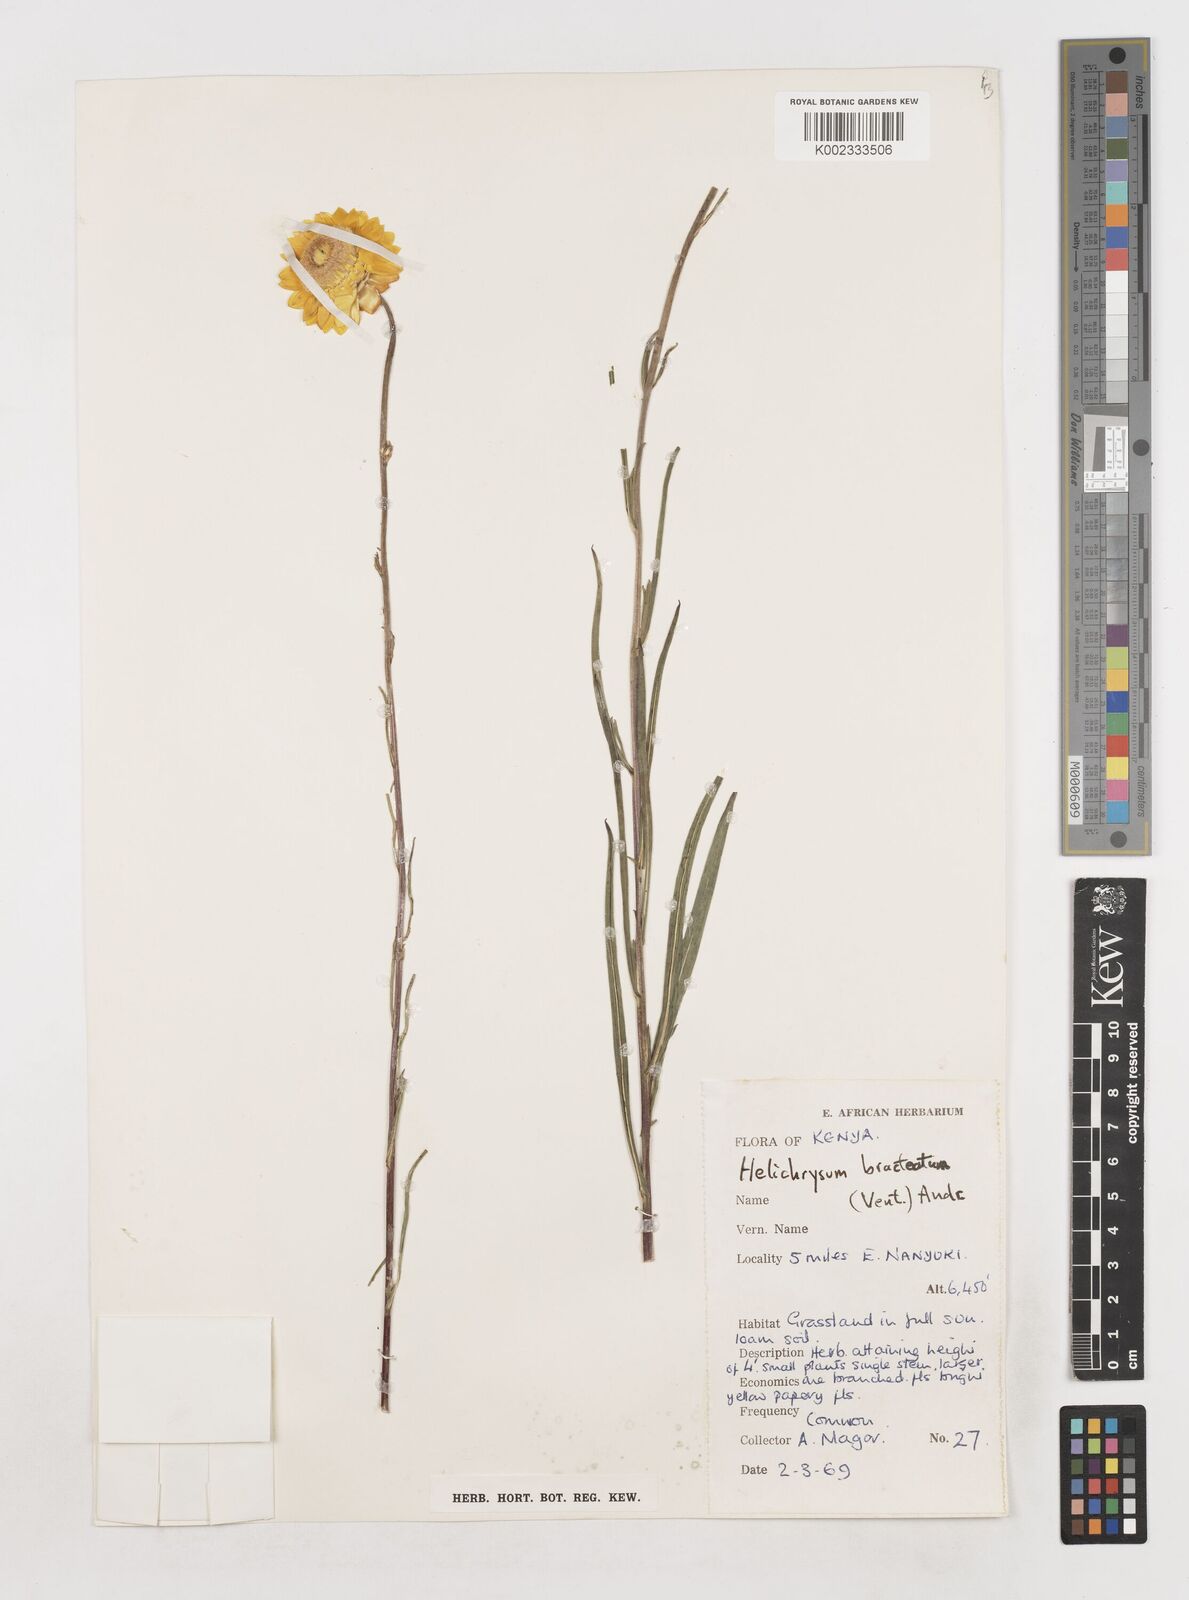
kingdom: Plantae
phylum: Tracheophyta
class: Magnoliopsida
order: Asterales
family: Asteraceae
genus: Xerochrysum
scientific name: Xerochrysum bracteatum
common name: Bracted strawflower
